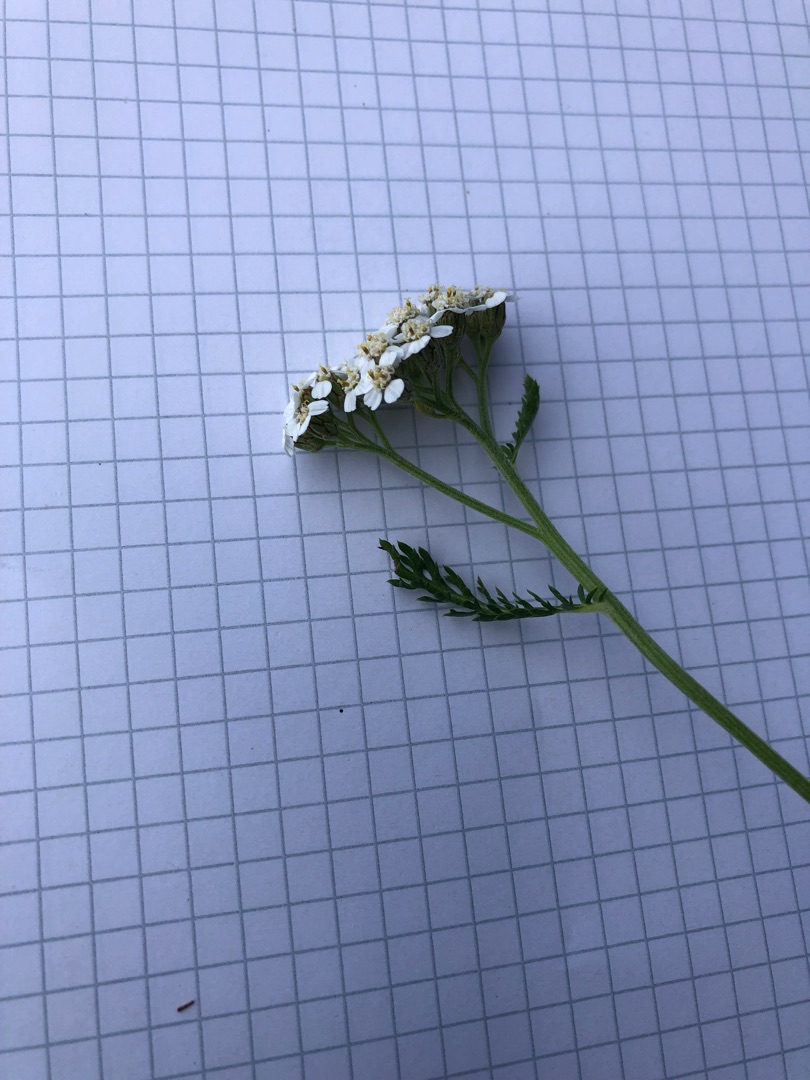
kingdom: Plantae
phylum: Tracheophyta
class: Magnoliopsida
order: Asterales
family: Asteraceae
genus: Achillea
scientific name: Achillea millefolium
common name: Almindelig røllike
